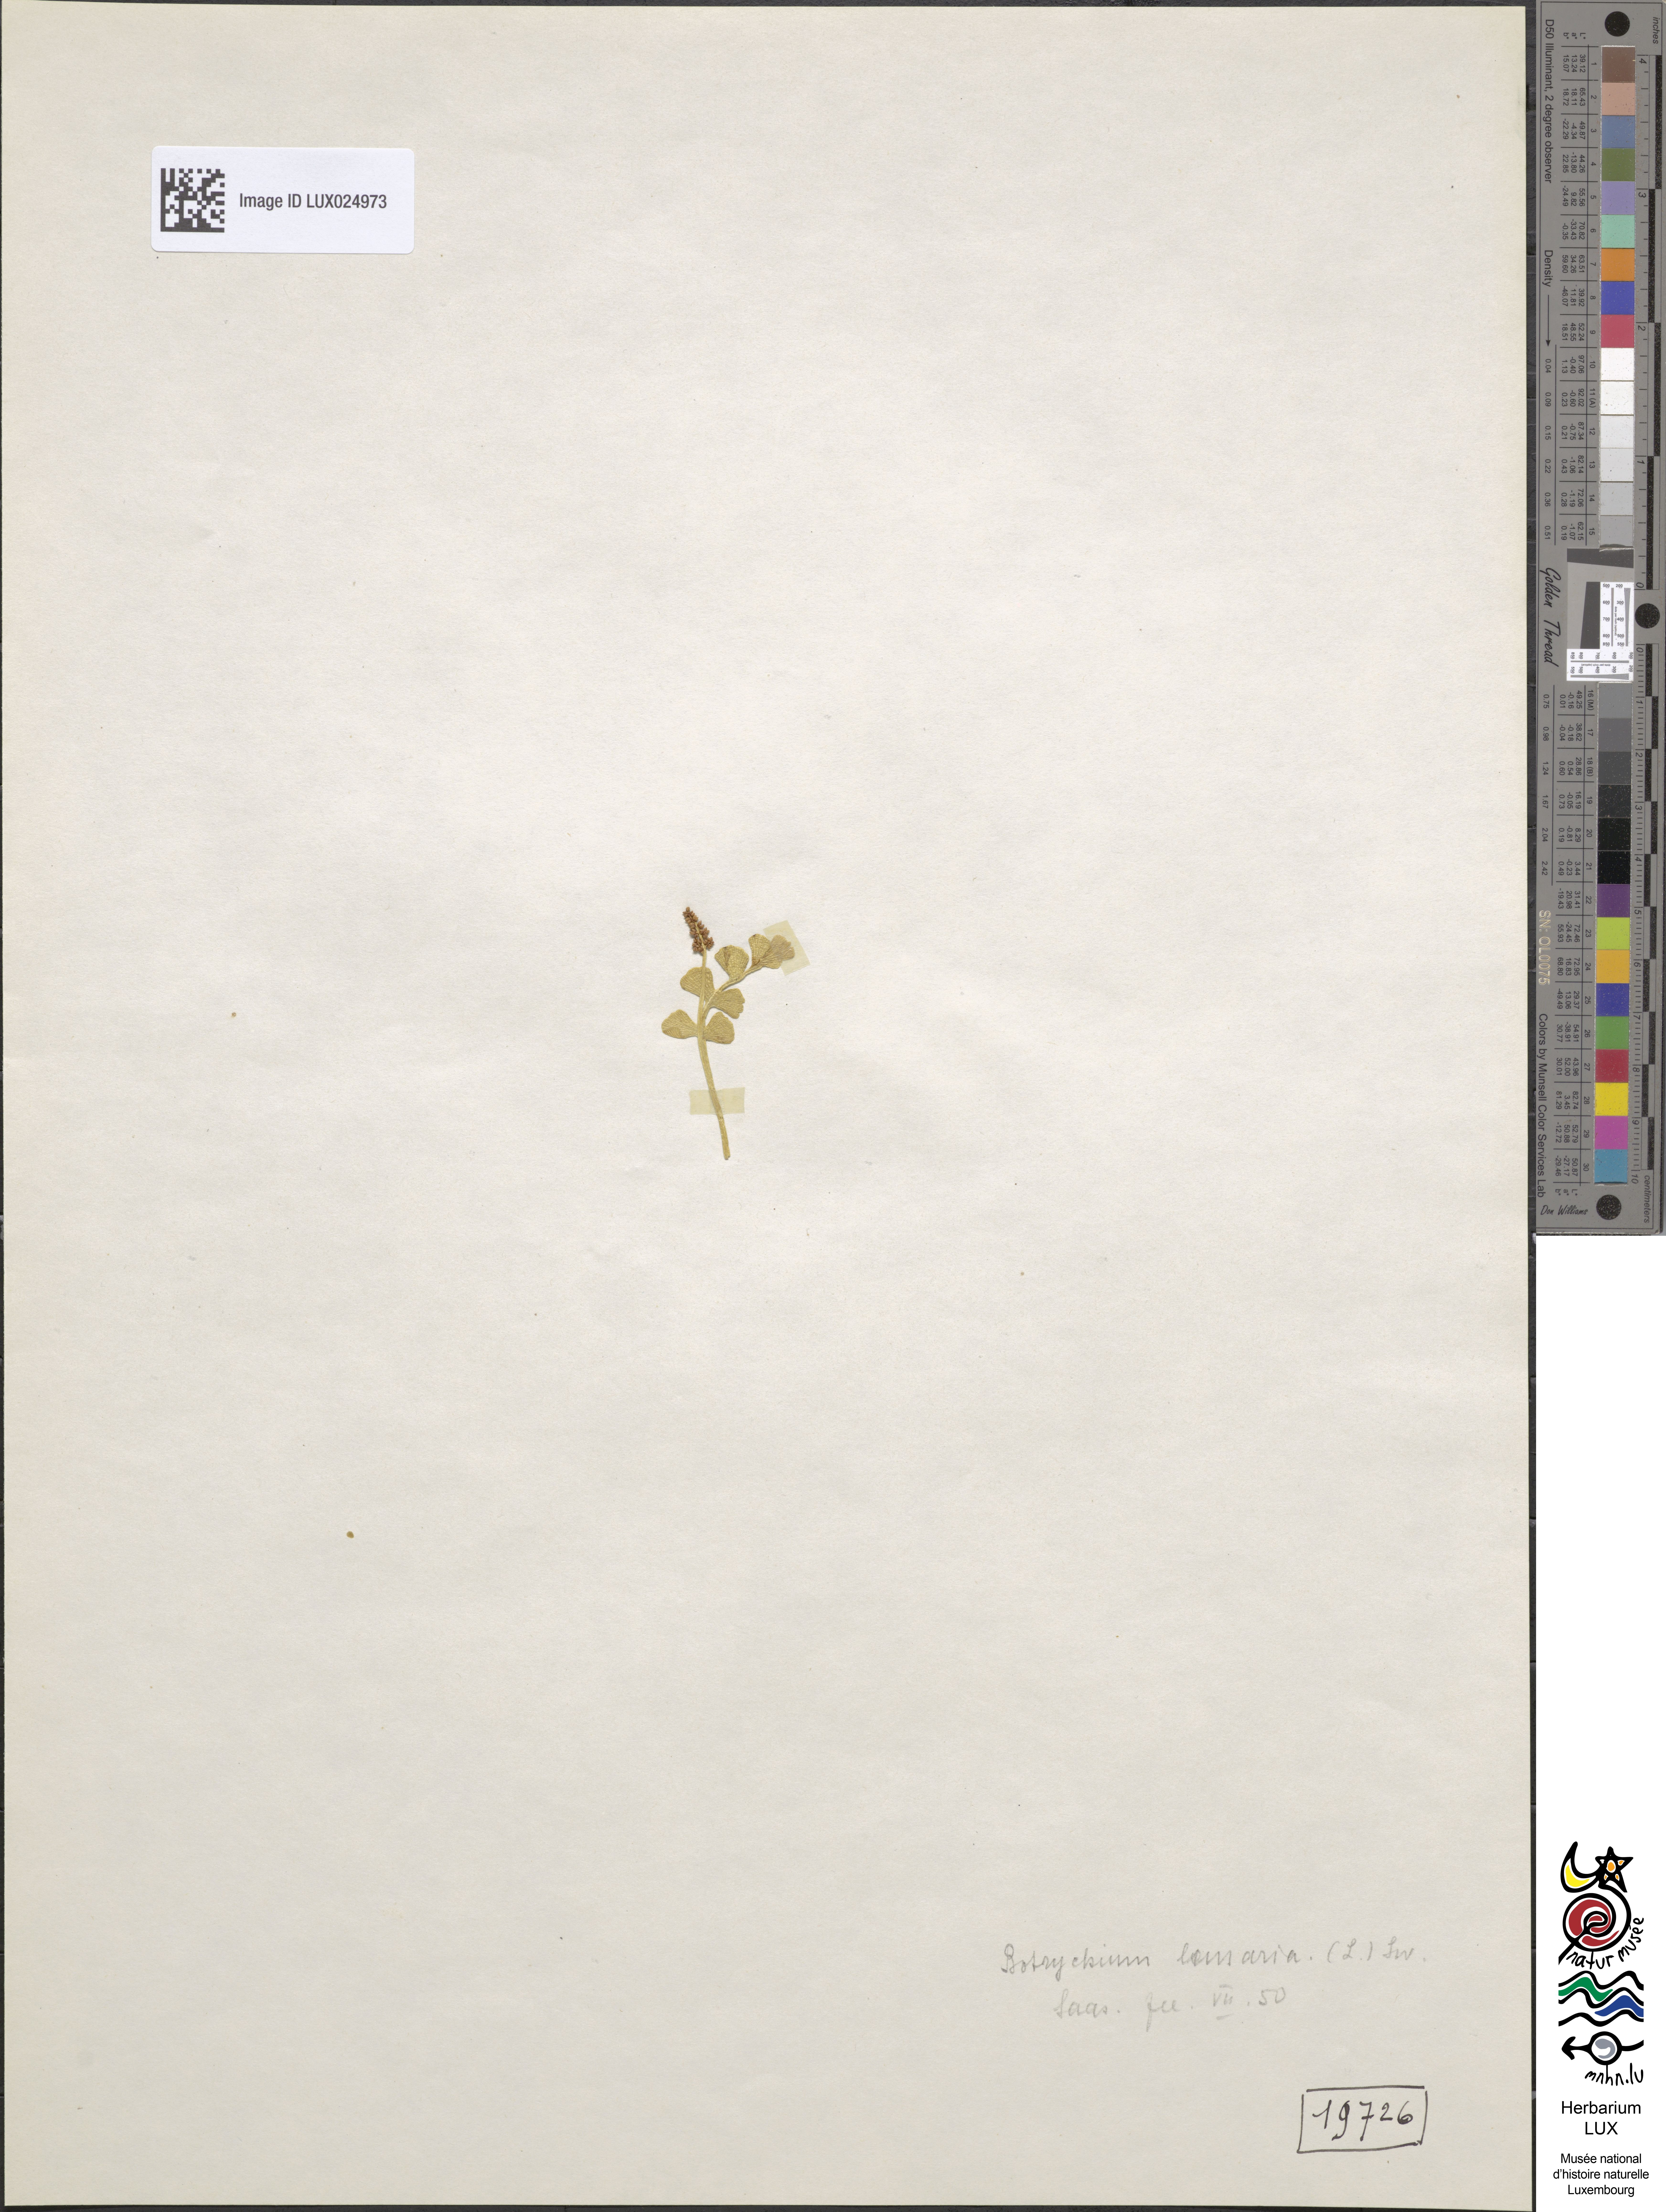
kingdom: Plantae
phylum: Tracheophyta
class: Polypodiopsida
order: Ophioglossales
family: Ophioglossaceae
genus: Botrychium
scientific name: Botrychium lunaria
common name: Moonwort
